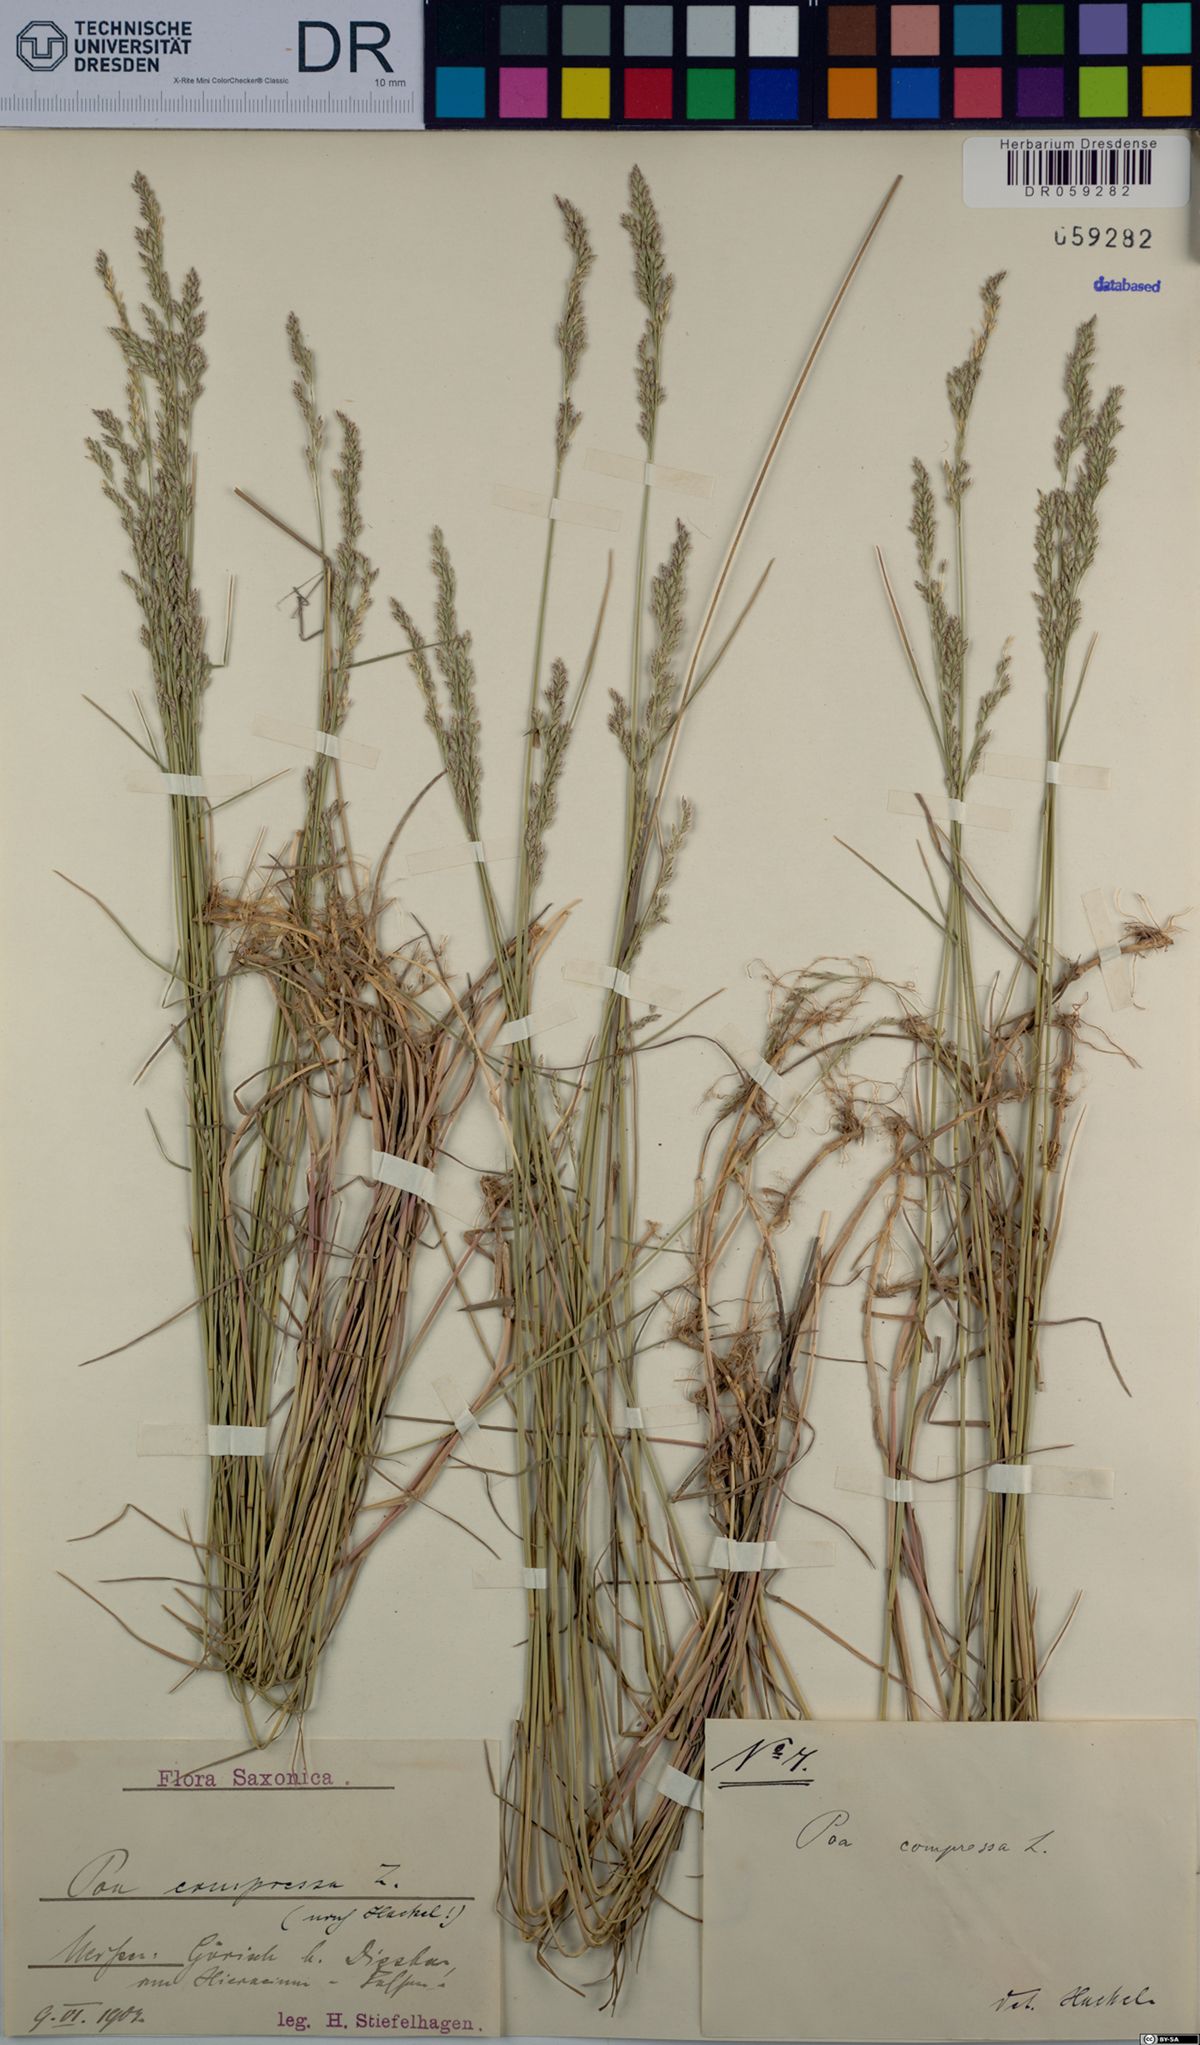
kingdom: Plantae
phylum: Tracheophyta
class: Liliopsida
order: Poales
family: Poaceae
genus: Poa
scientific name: Poa compressa
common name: Canada bluegrass
